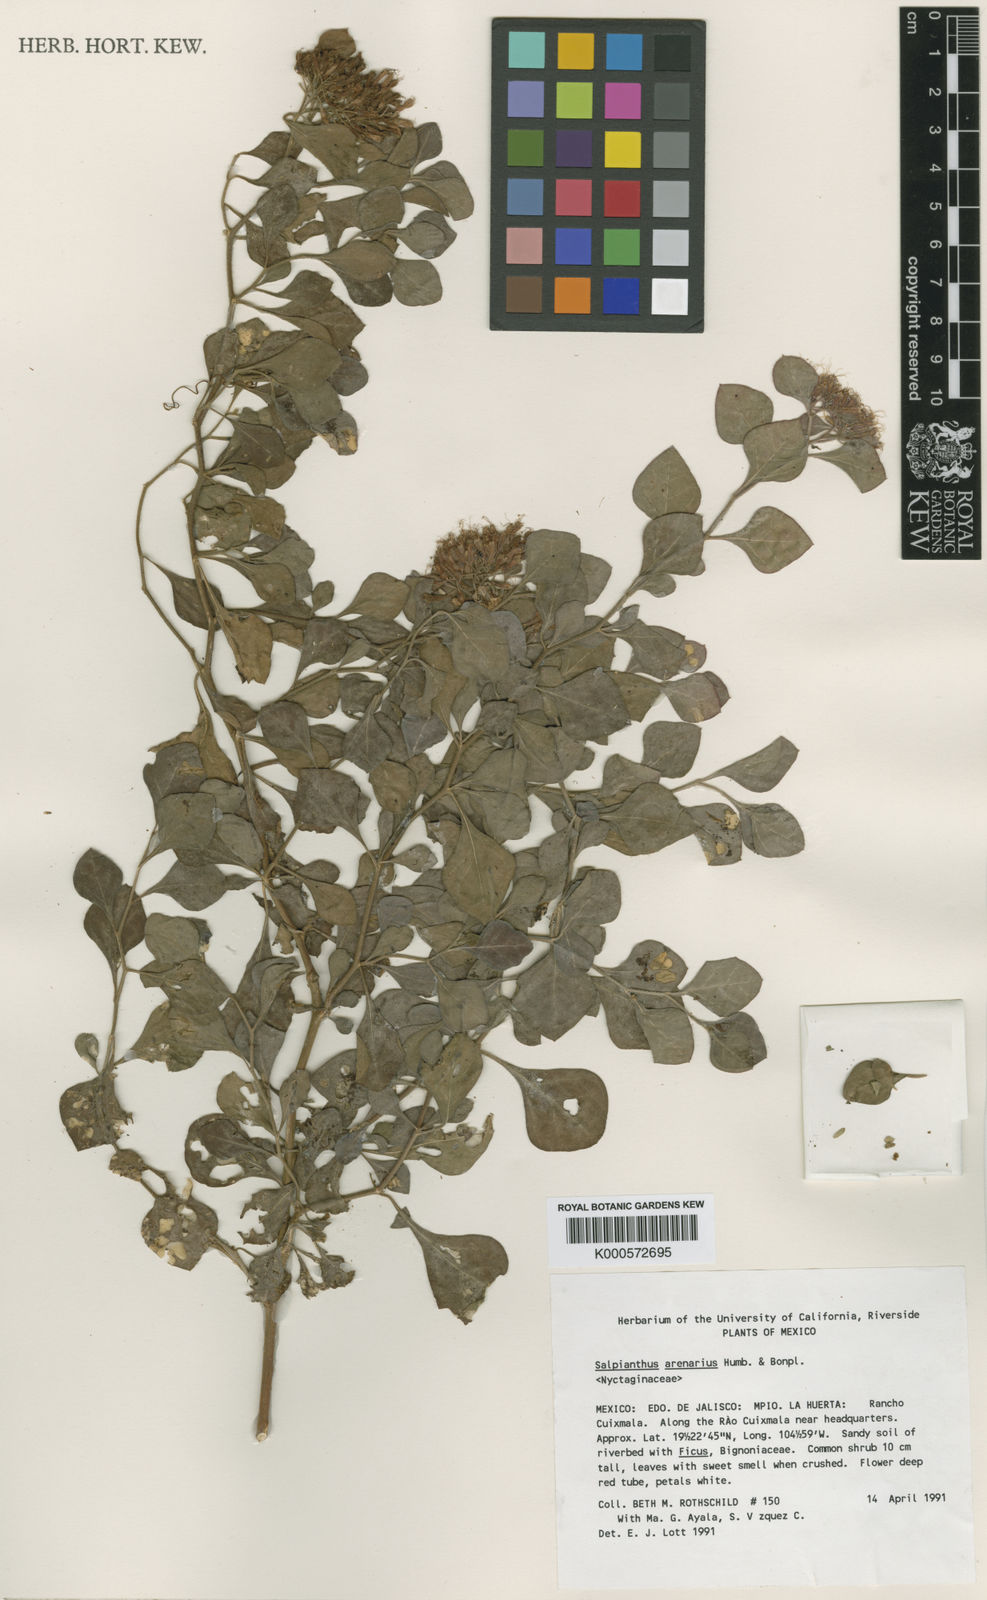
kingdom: Plantae
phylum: Tracheophyta
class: Magnoliopsida
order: Caryophyllales
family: Nyctaginaceae
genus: Salpianthus
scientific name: Salpianthus aequalis
